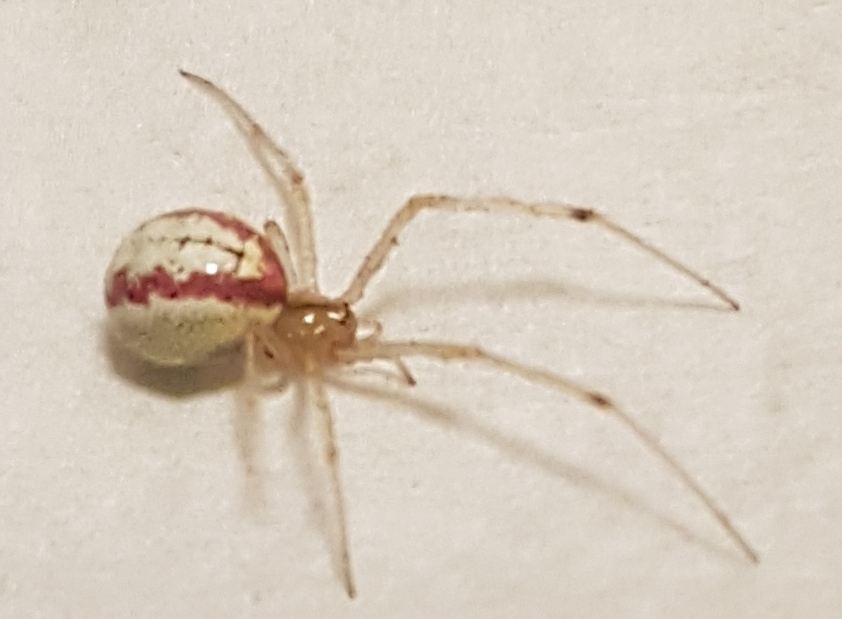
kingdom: Animalia
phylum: Arthropoda
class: Arachnida
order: Araneae
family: Theridiidae
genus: Enoplognatha
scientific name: Enoplognatha
